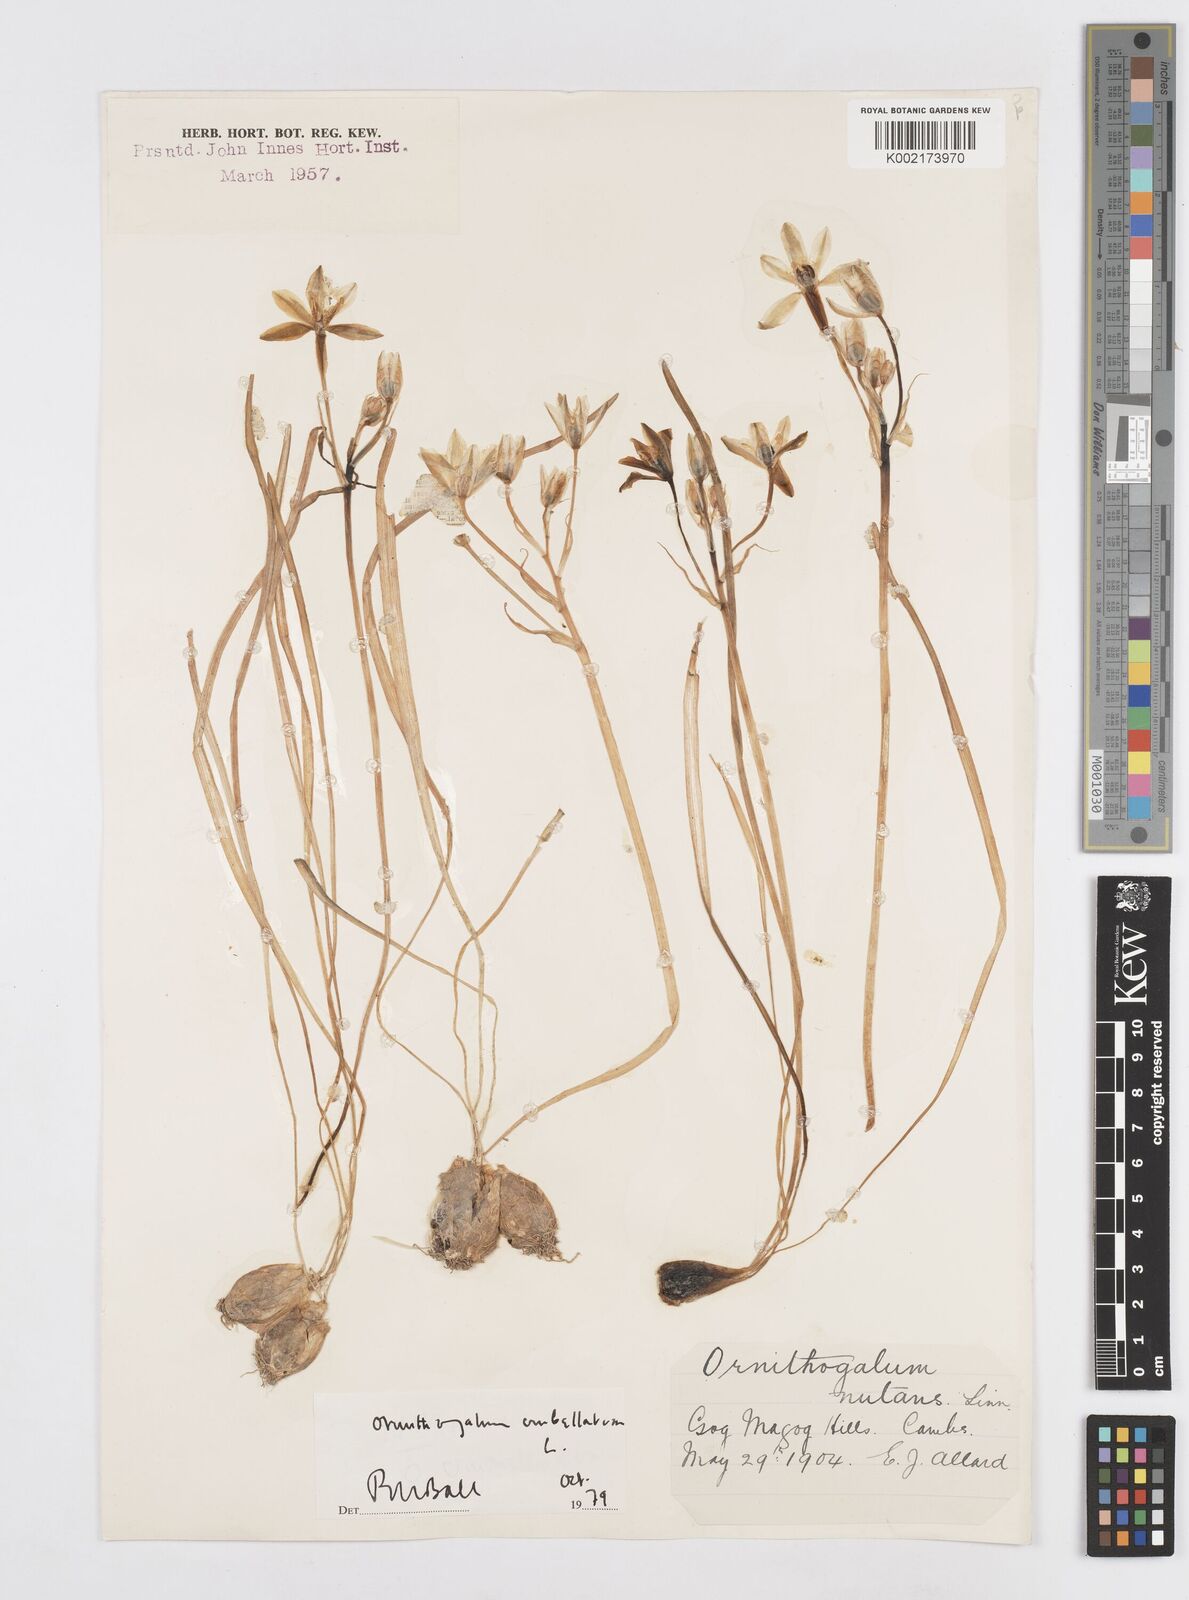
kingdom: Plantae
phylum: Tracheophyta
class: Liliopsida
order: Asparagales
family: Asparagaceae
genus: Ornithogalum
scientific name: Ornithogalum nutans
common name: Drooping star-of-bethlehem
